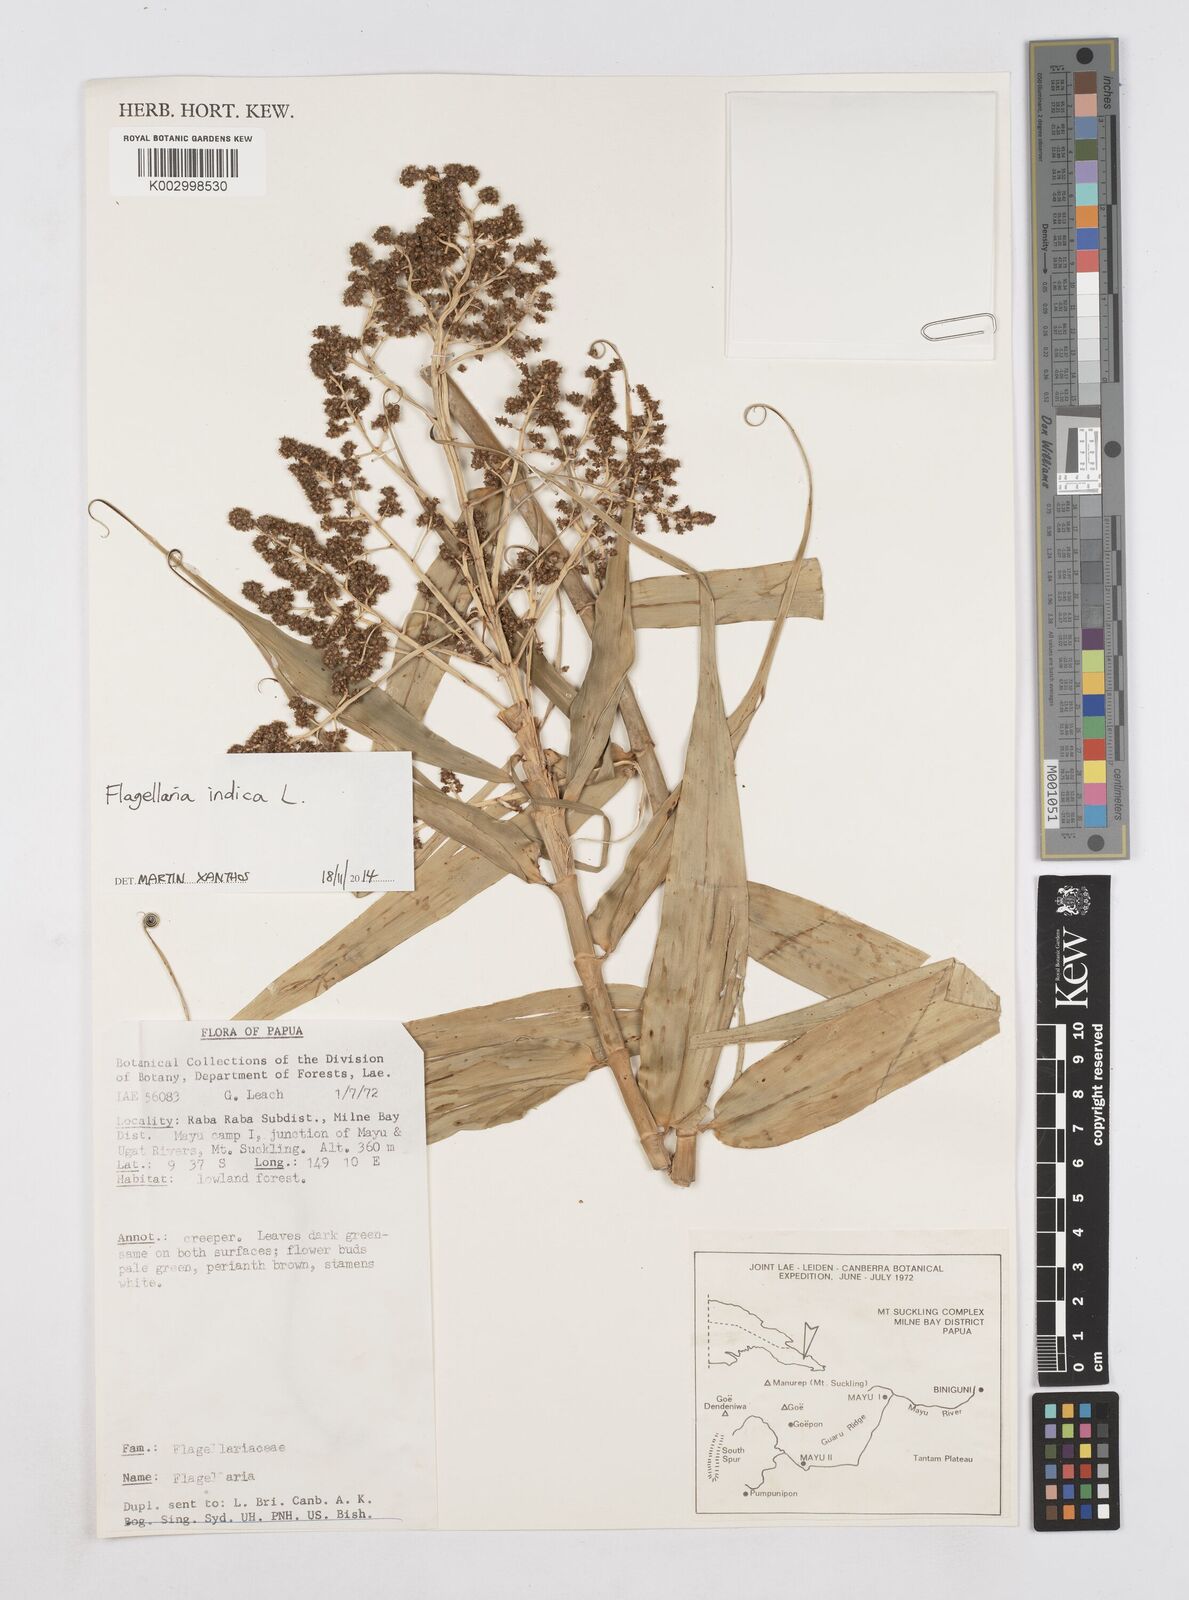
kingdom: Plantae
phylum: Tracheophyta
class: Liliopsida
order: Poales
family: Flagellariaceae
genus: Flagellaria
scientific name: Flagellaria indica
